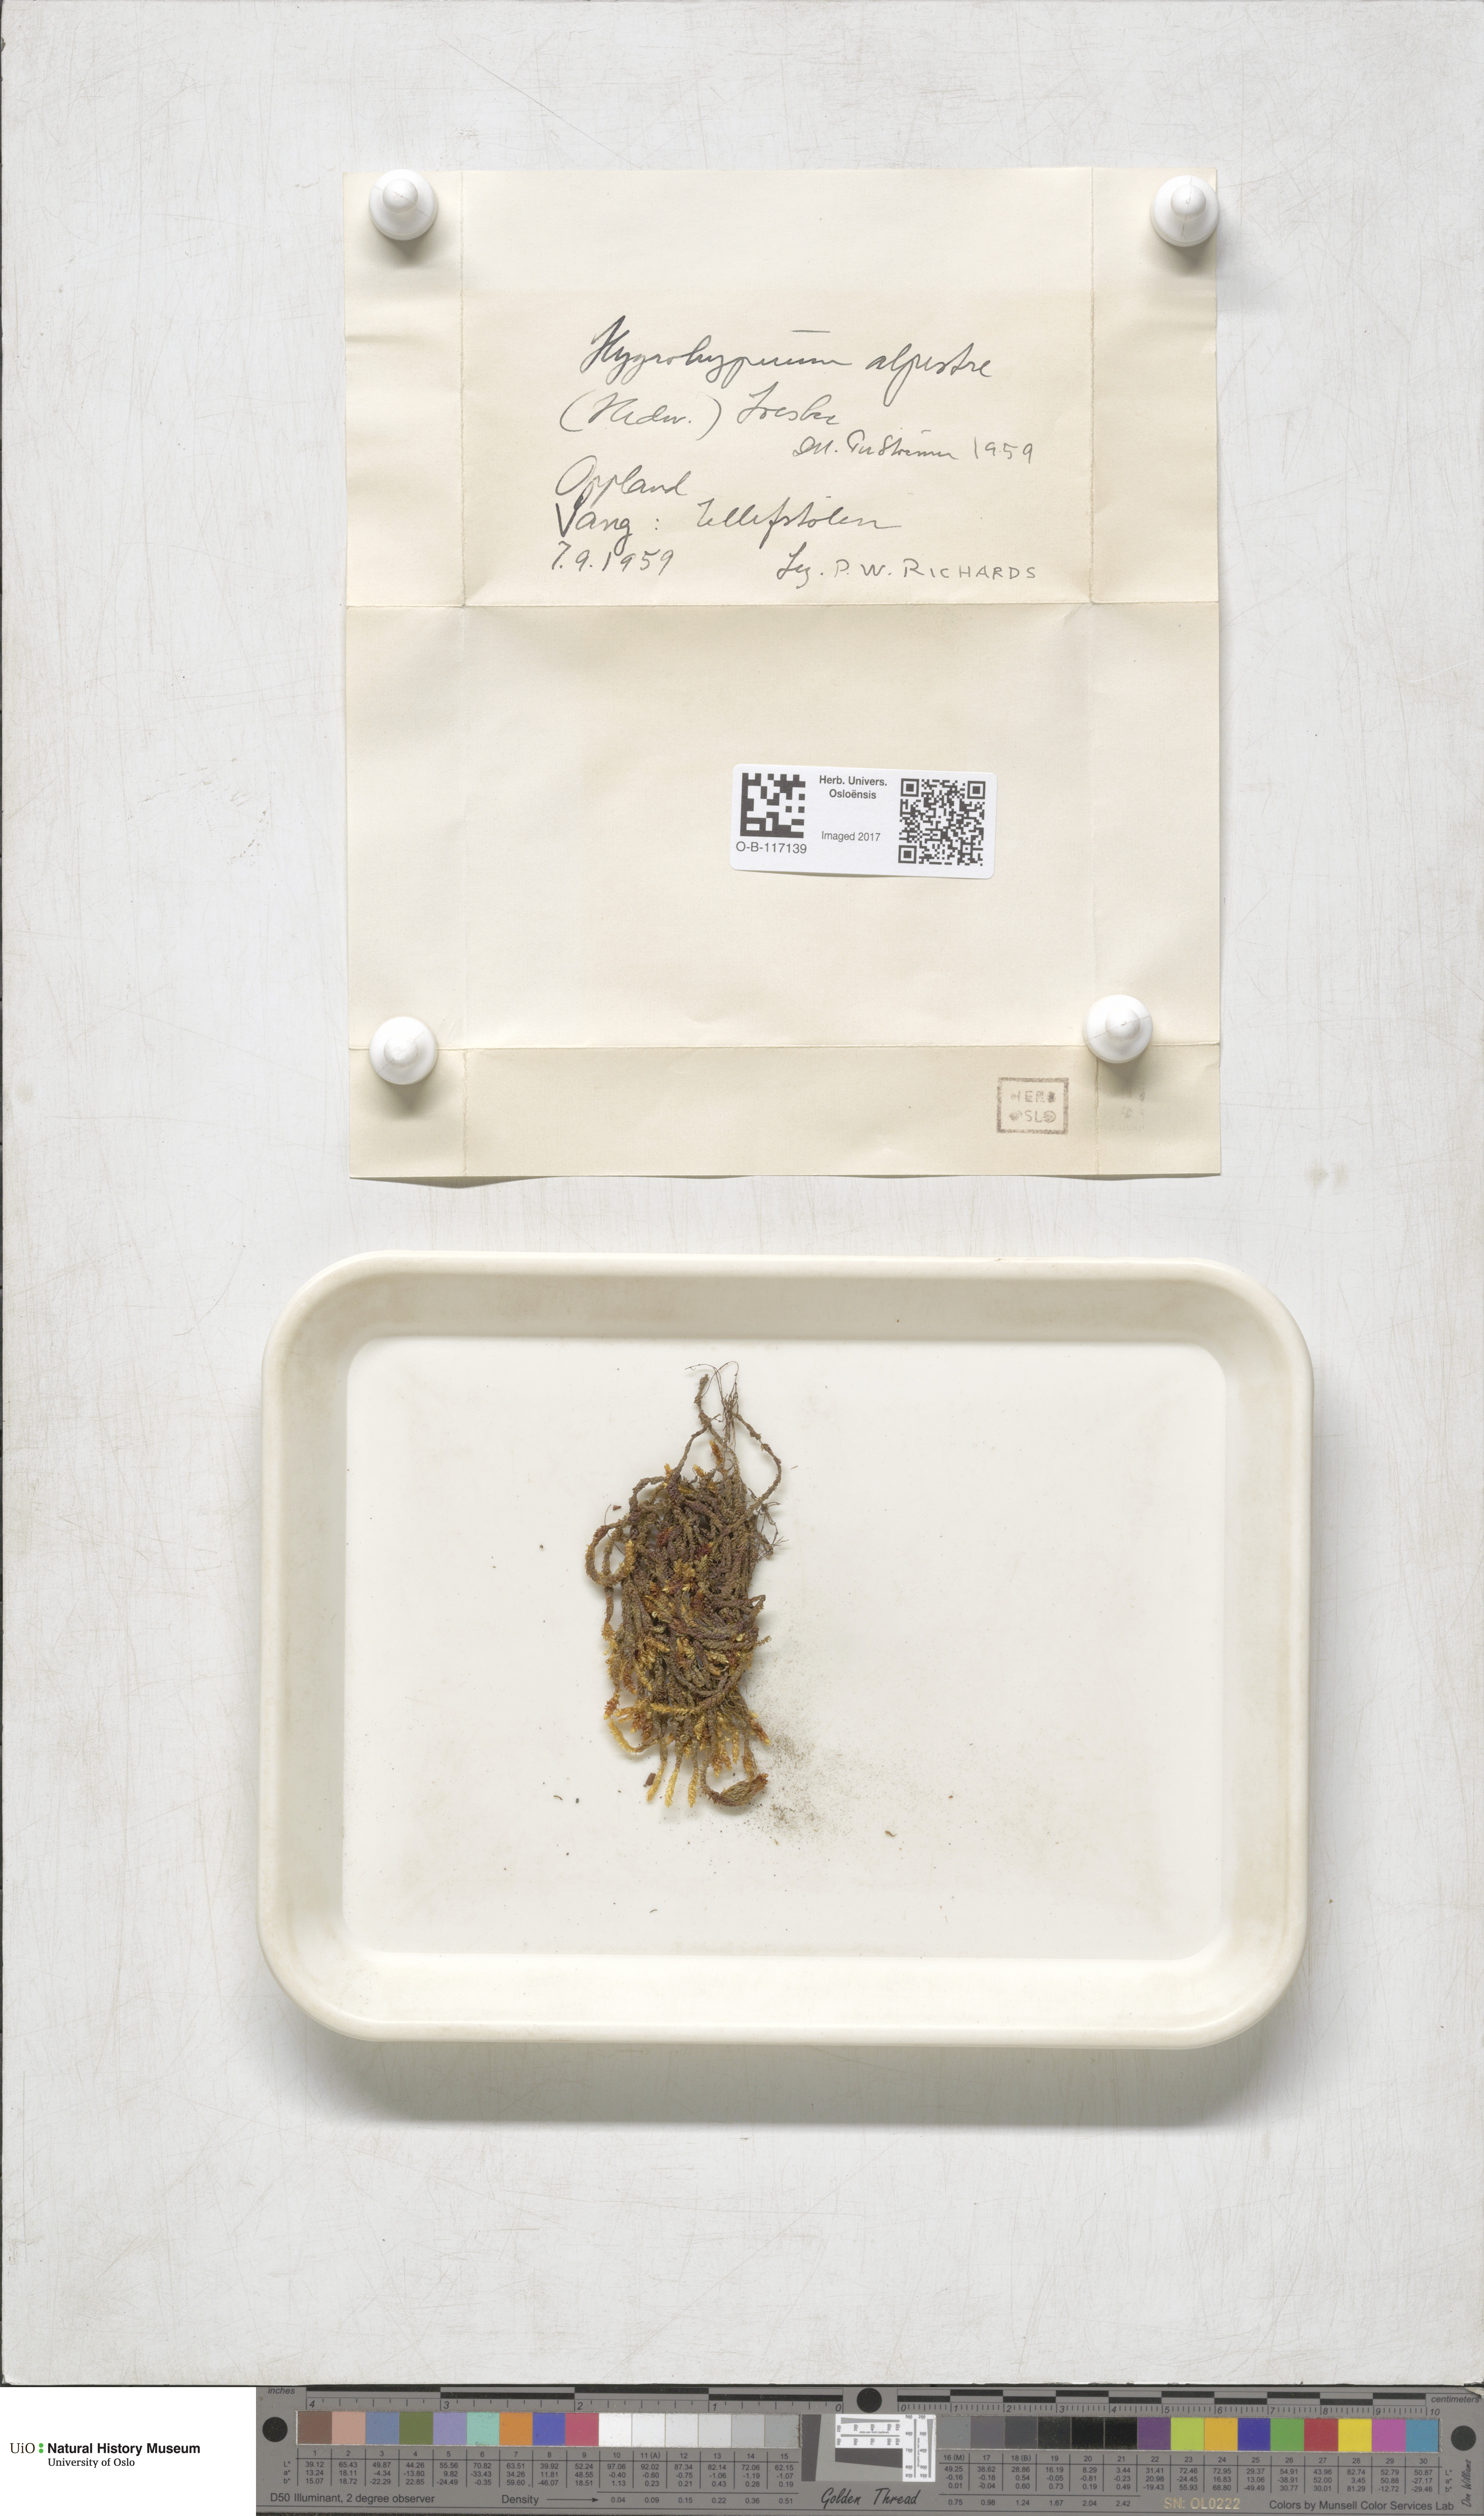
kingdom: Plantae
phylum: Bryophyta
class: Bryopsida
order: Hypnales
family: Amblystegiaceae
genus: Platyhypnum
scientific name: Platyhypnum alpestre
